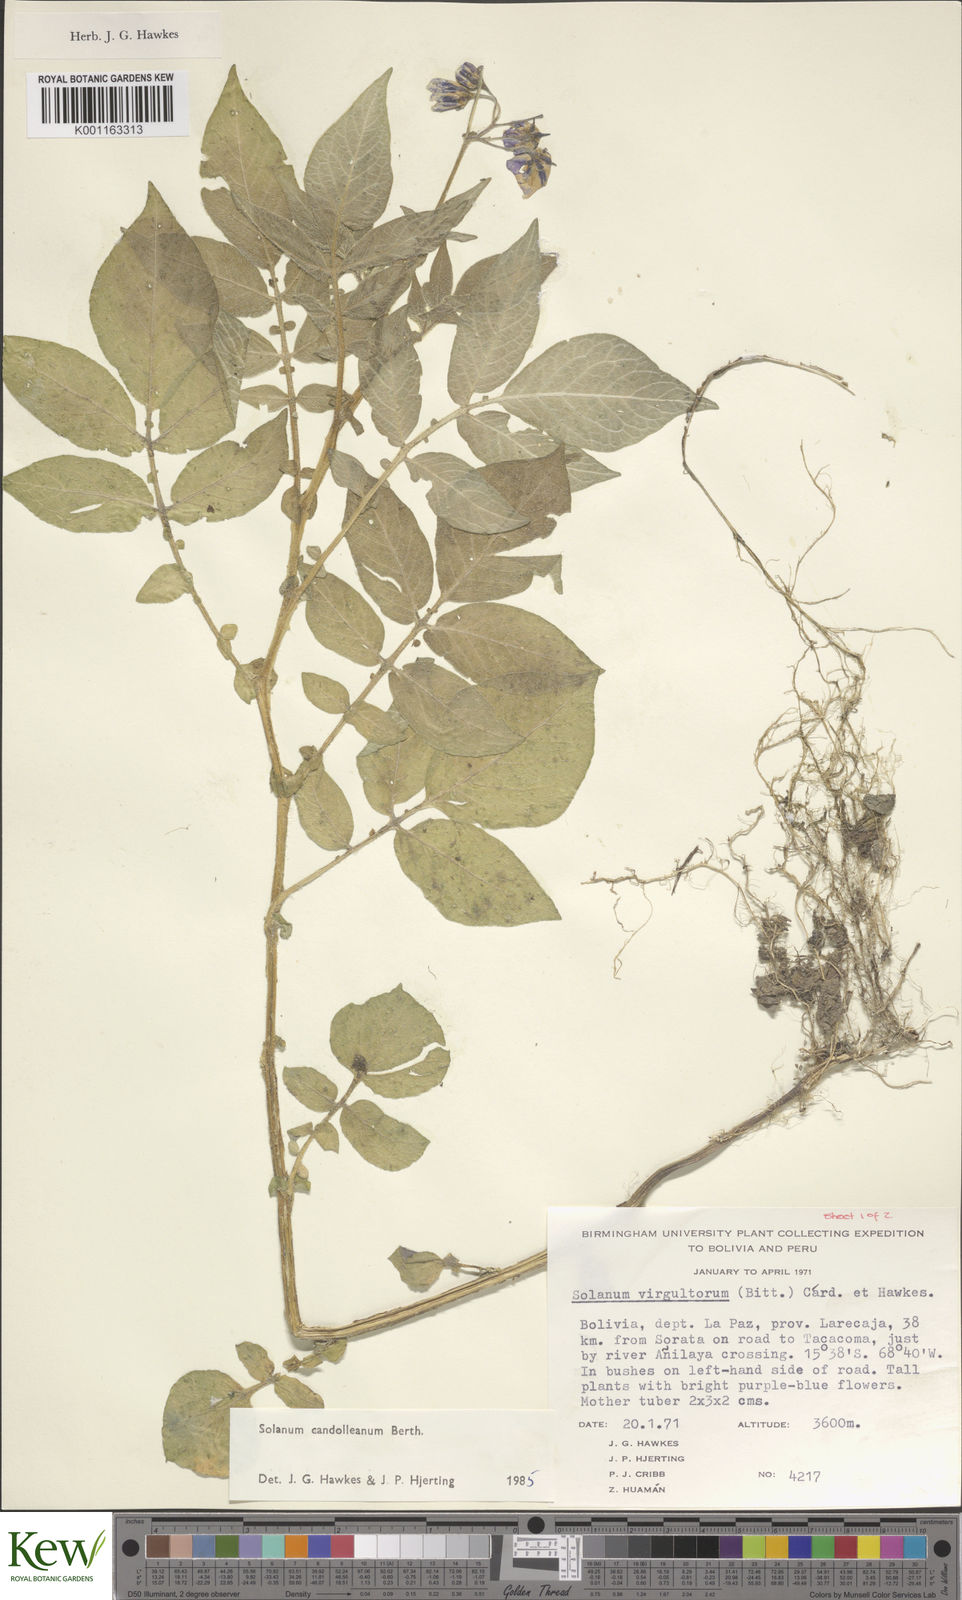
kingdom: Plantae
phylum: Tracheophyta
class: Magnoliopsida
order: Solanales
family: Solanaceae
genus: Solanum
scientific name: Solanum candolleanum
